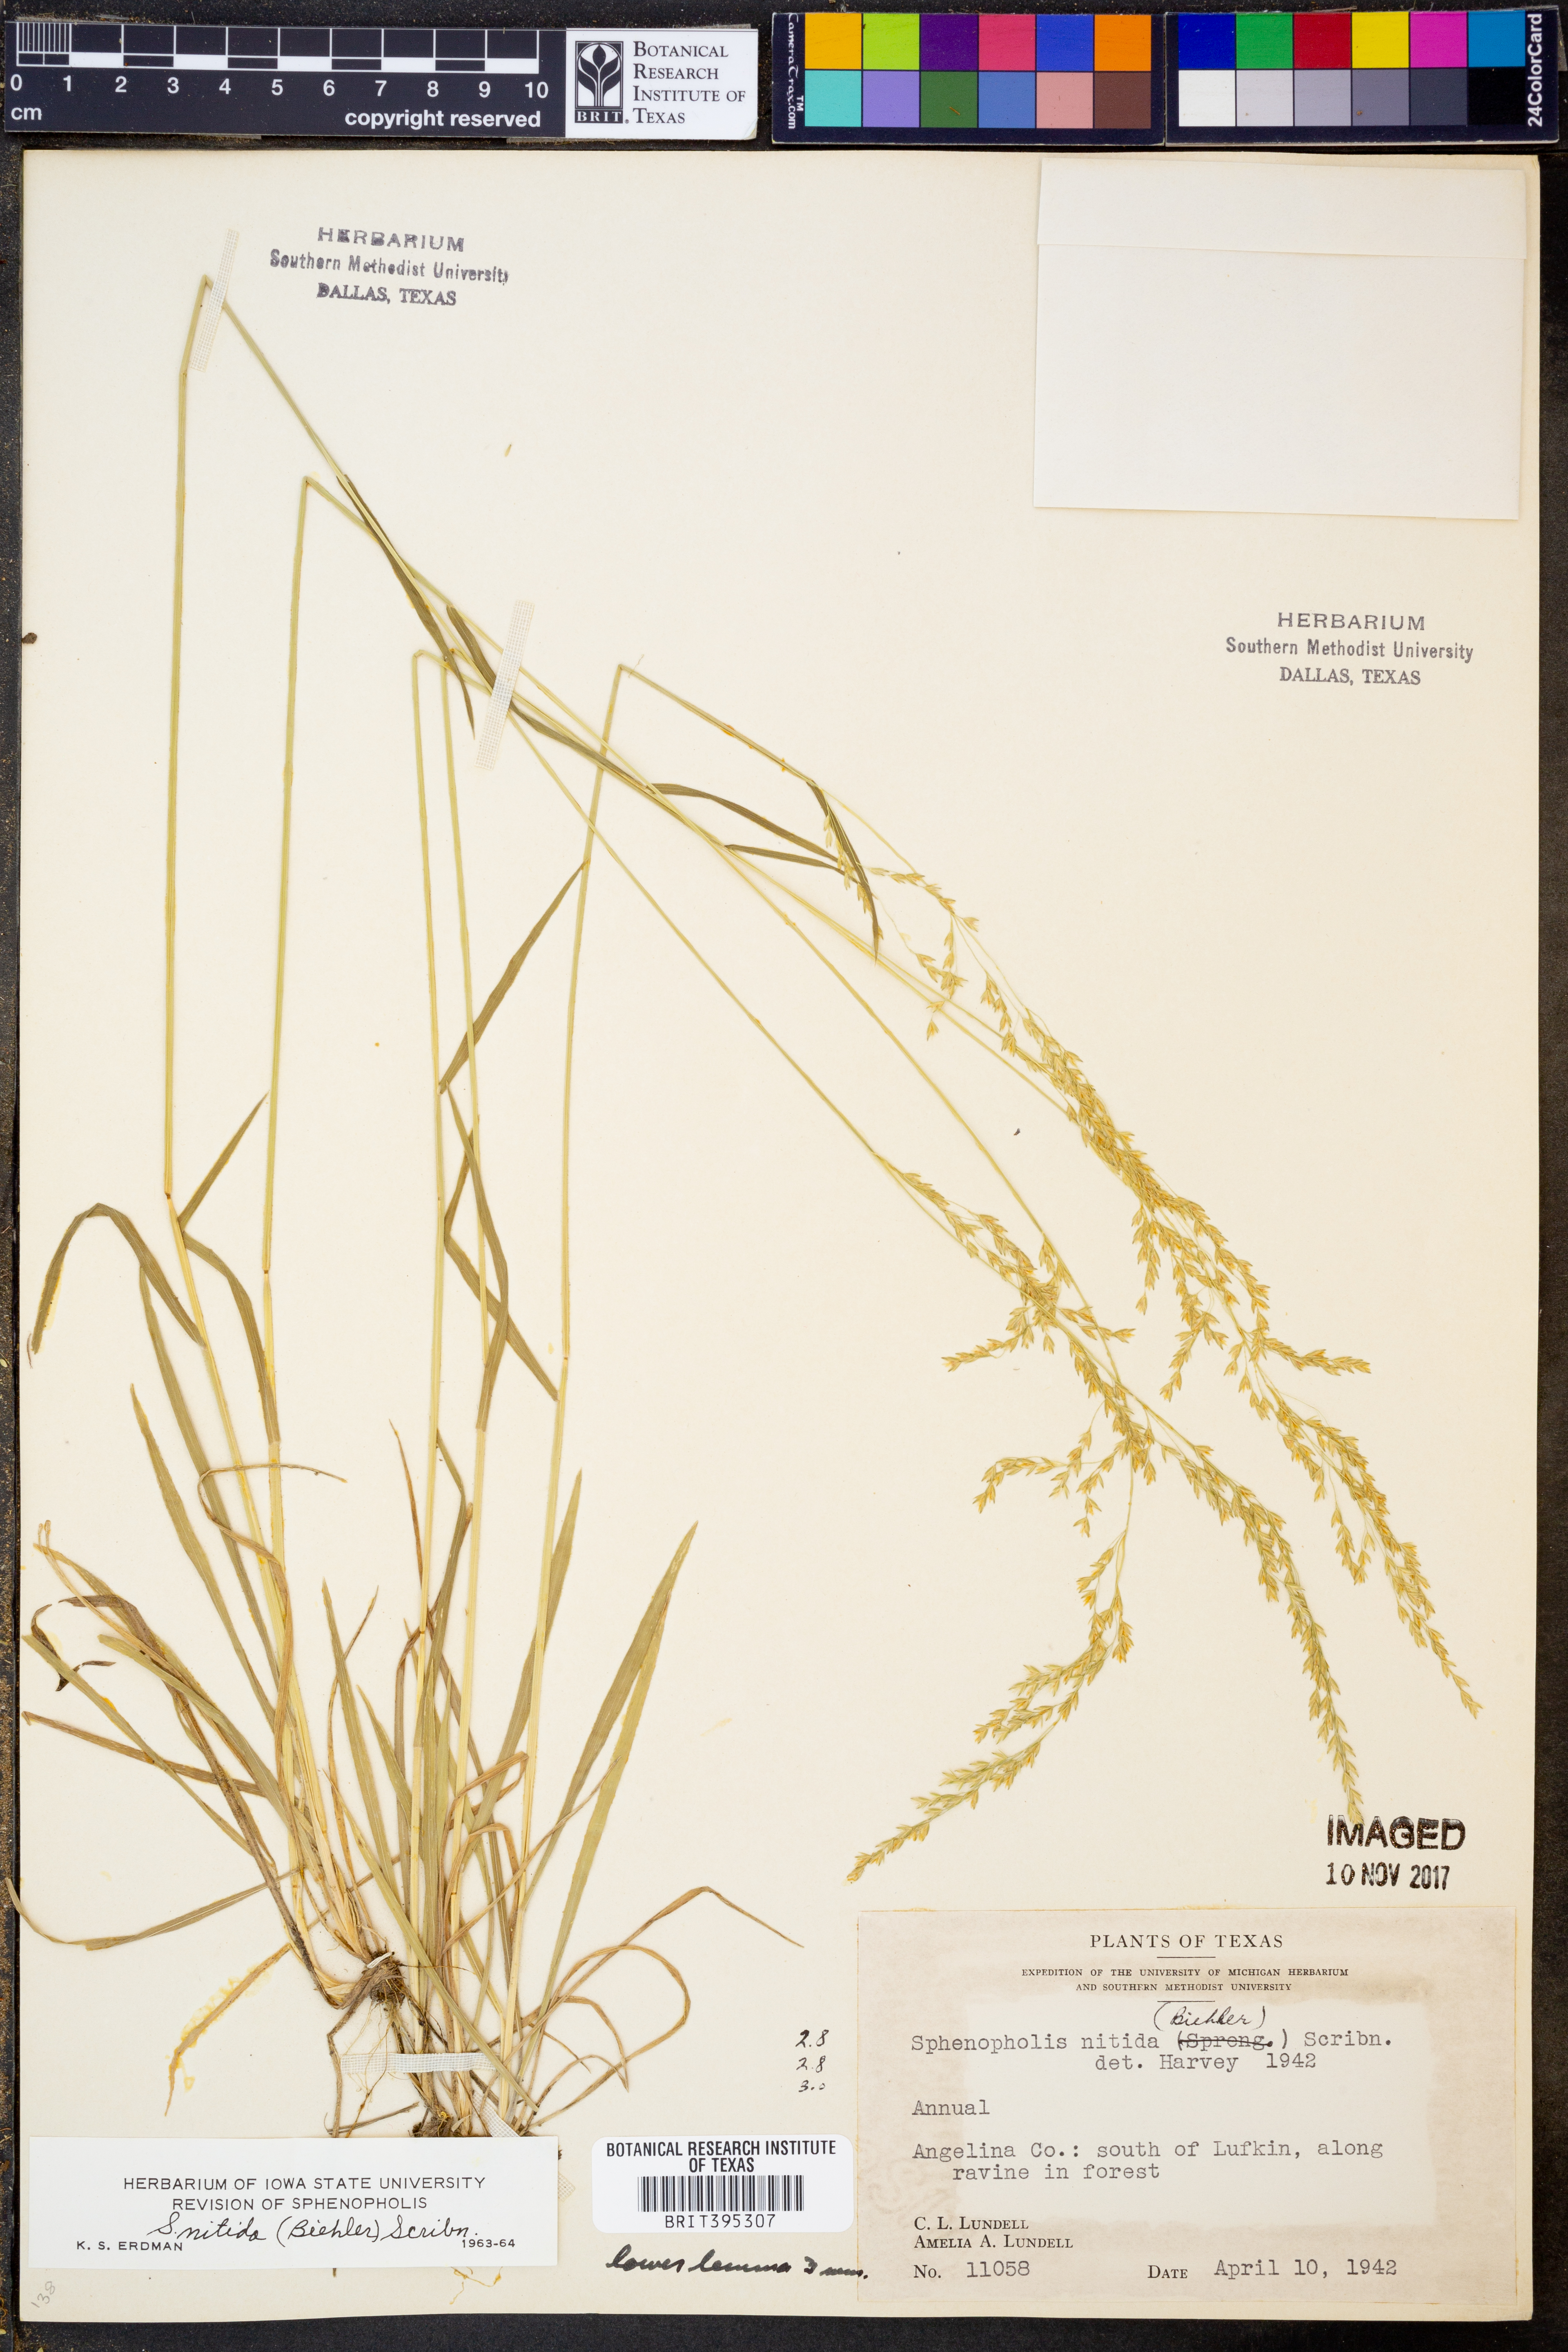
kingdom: Plantae
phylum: Tracheophyta
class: Liliopsida
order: Poales
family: Poaceae
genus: Sphenopholis
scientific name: Sphenopholis nitida
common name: Shiny wedgegrass
